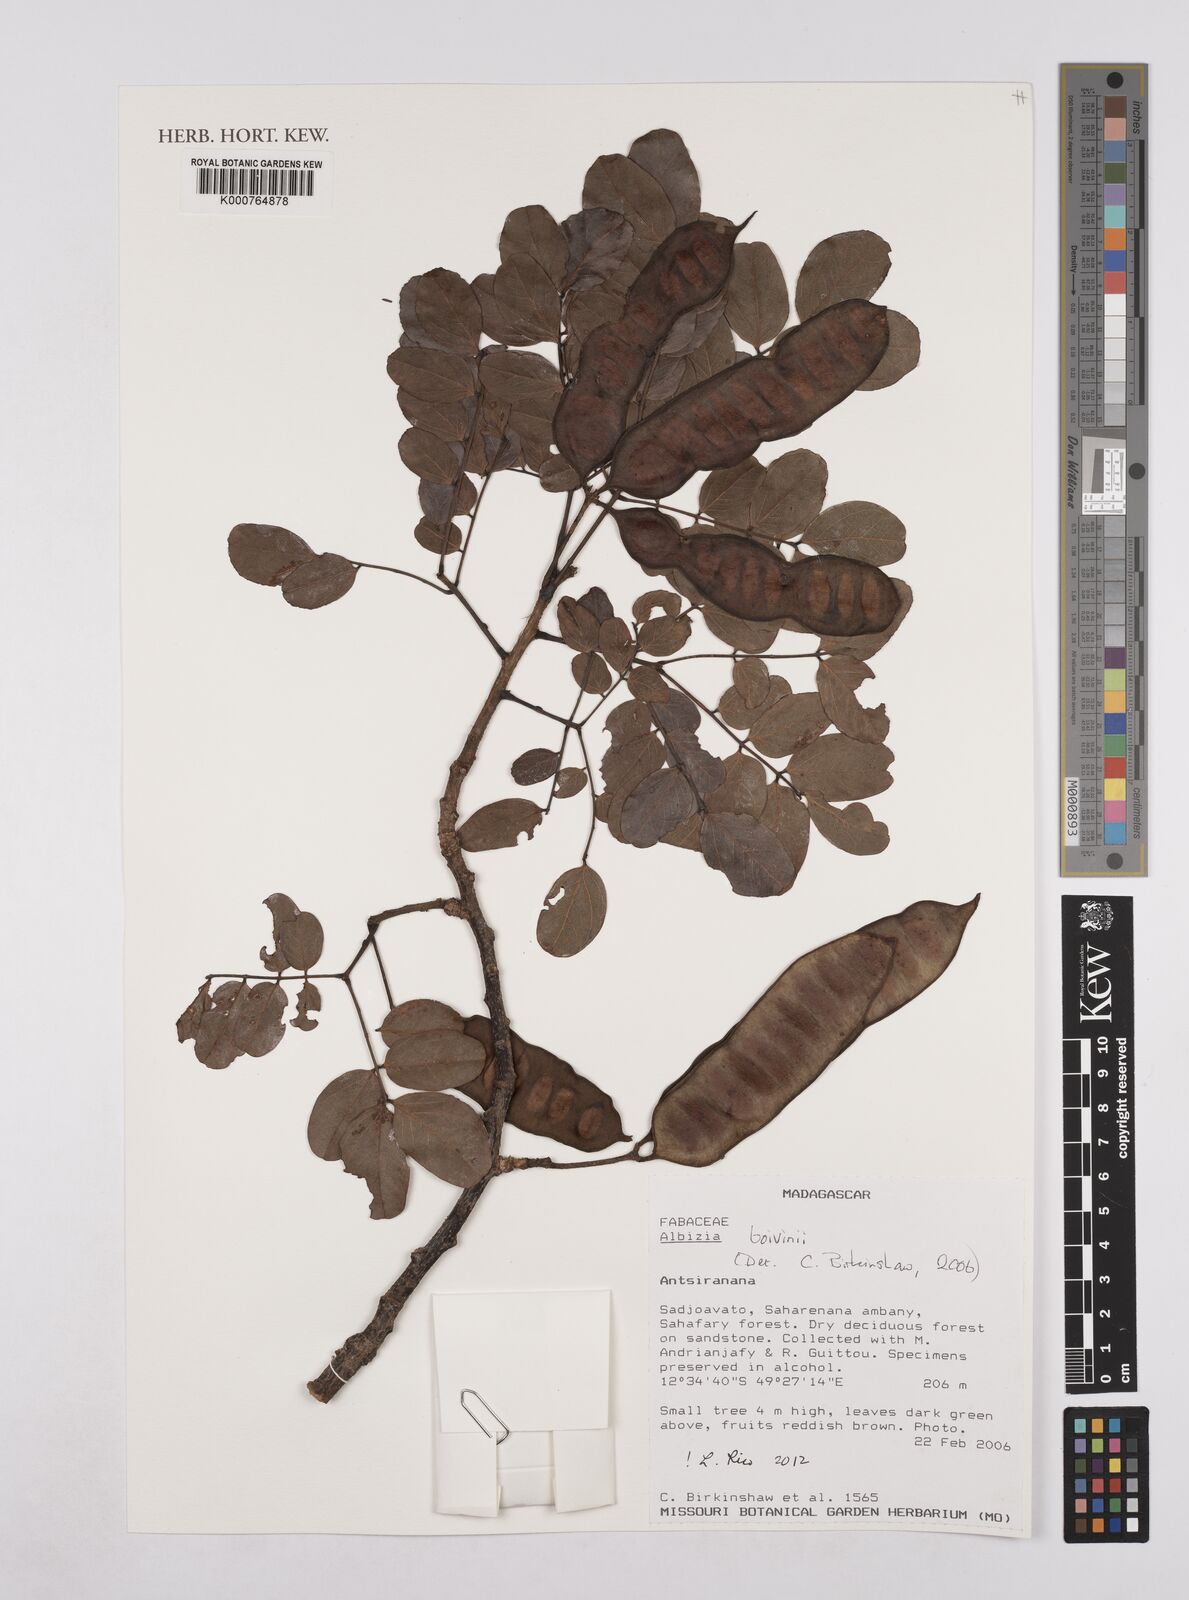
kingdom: Plantae
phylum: Tracheophyta
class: Magnoliopsida
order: Fabales
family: Fabaceae
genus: Albizia
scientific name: Albizia boivinii
